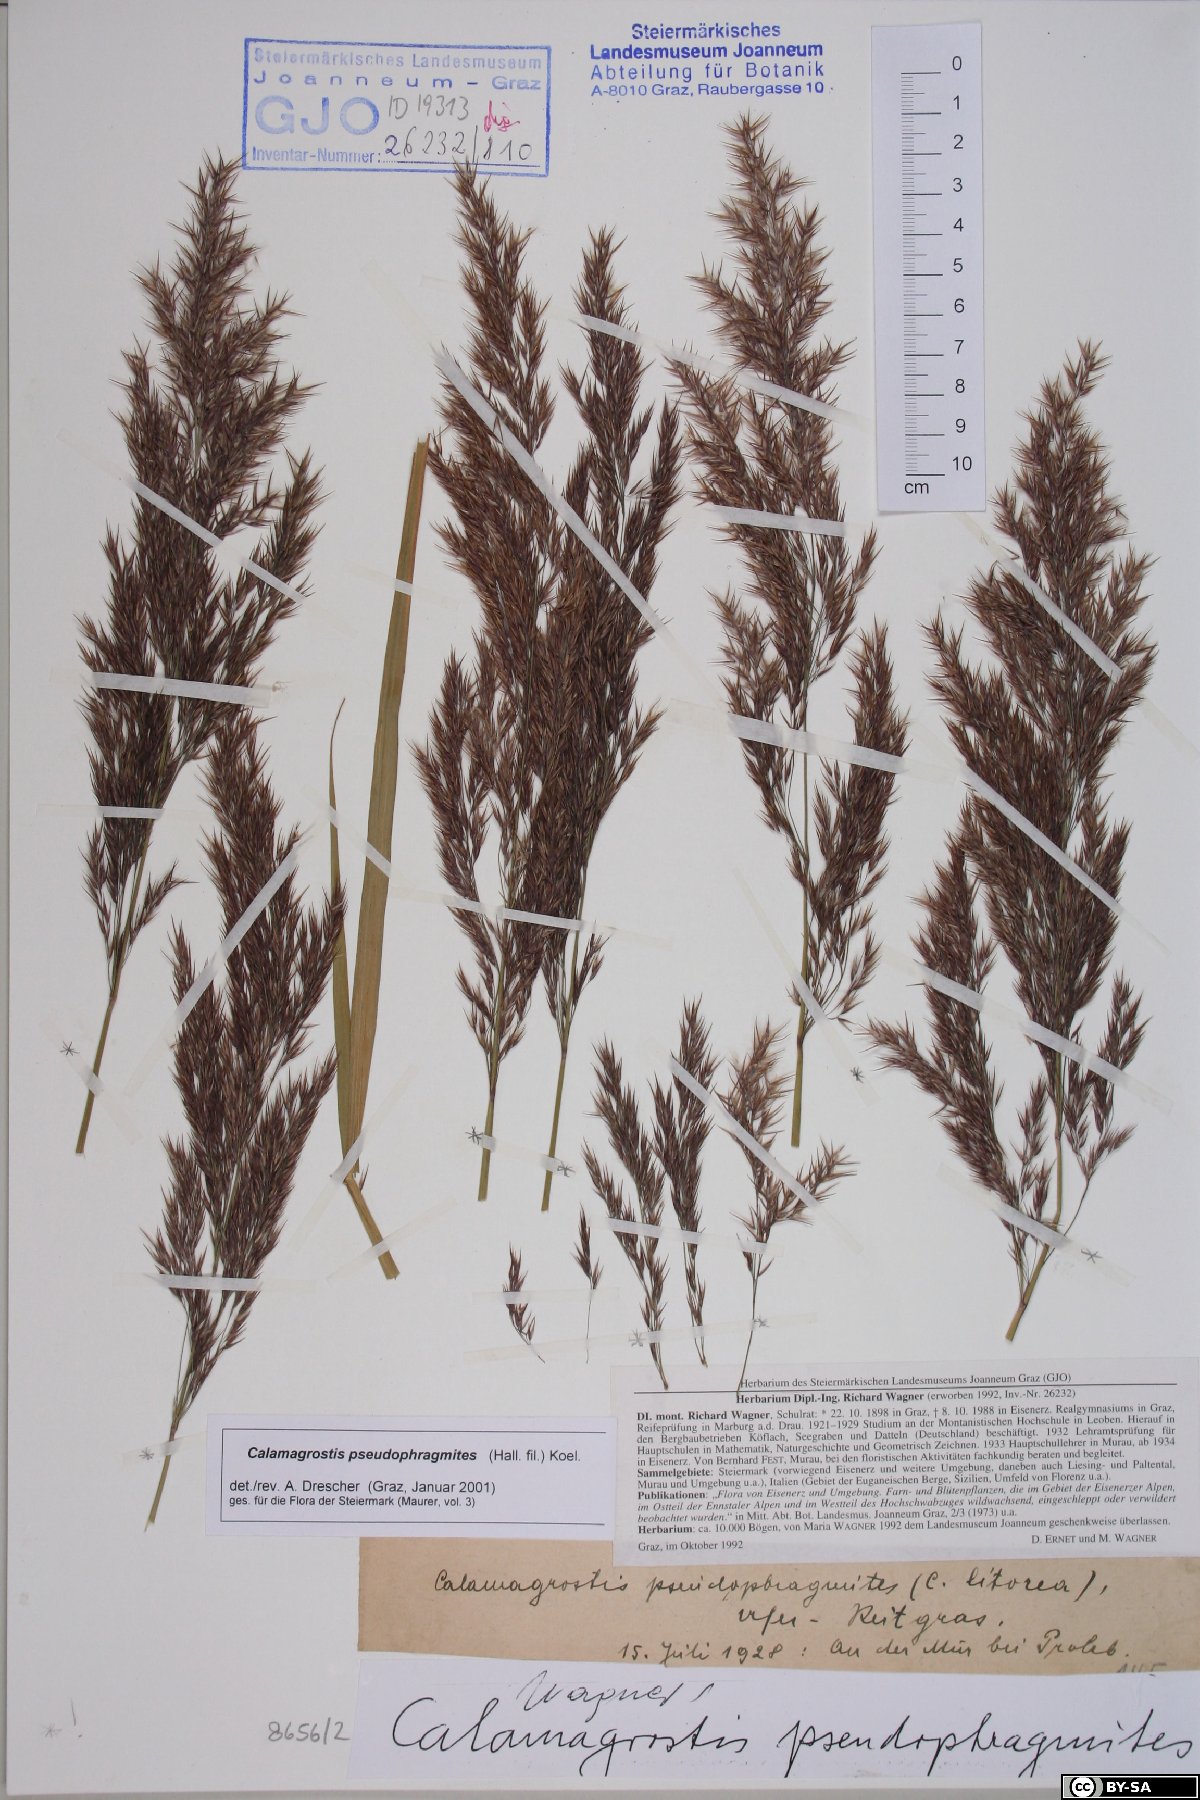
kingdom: Plantae
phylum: Tracheophyta
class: Liliopsida
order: Poales
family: Poaceae
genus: Calamagrostis
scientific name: Calamagrostis pseudophragmites
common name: Coastal small-reed
